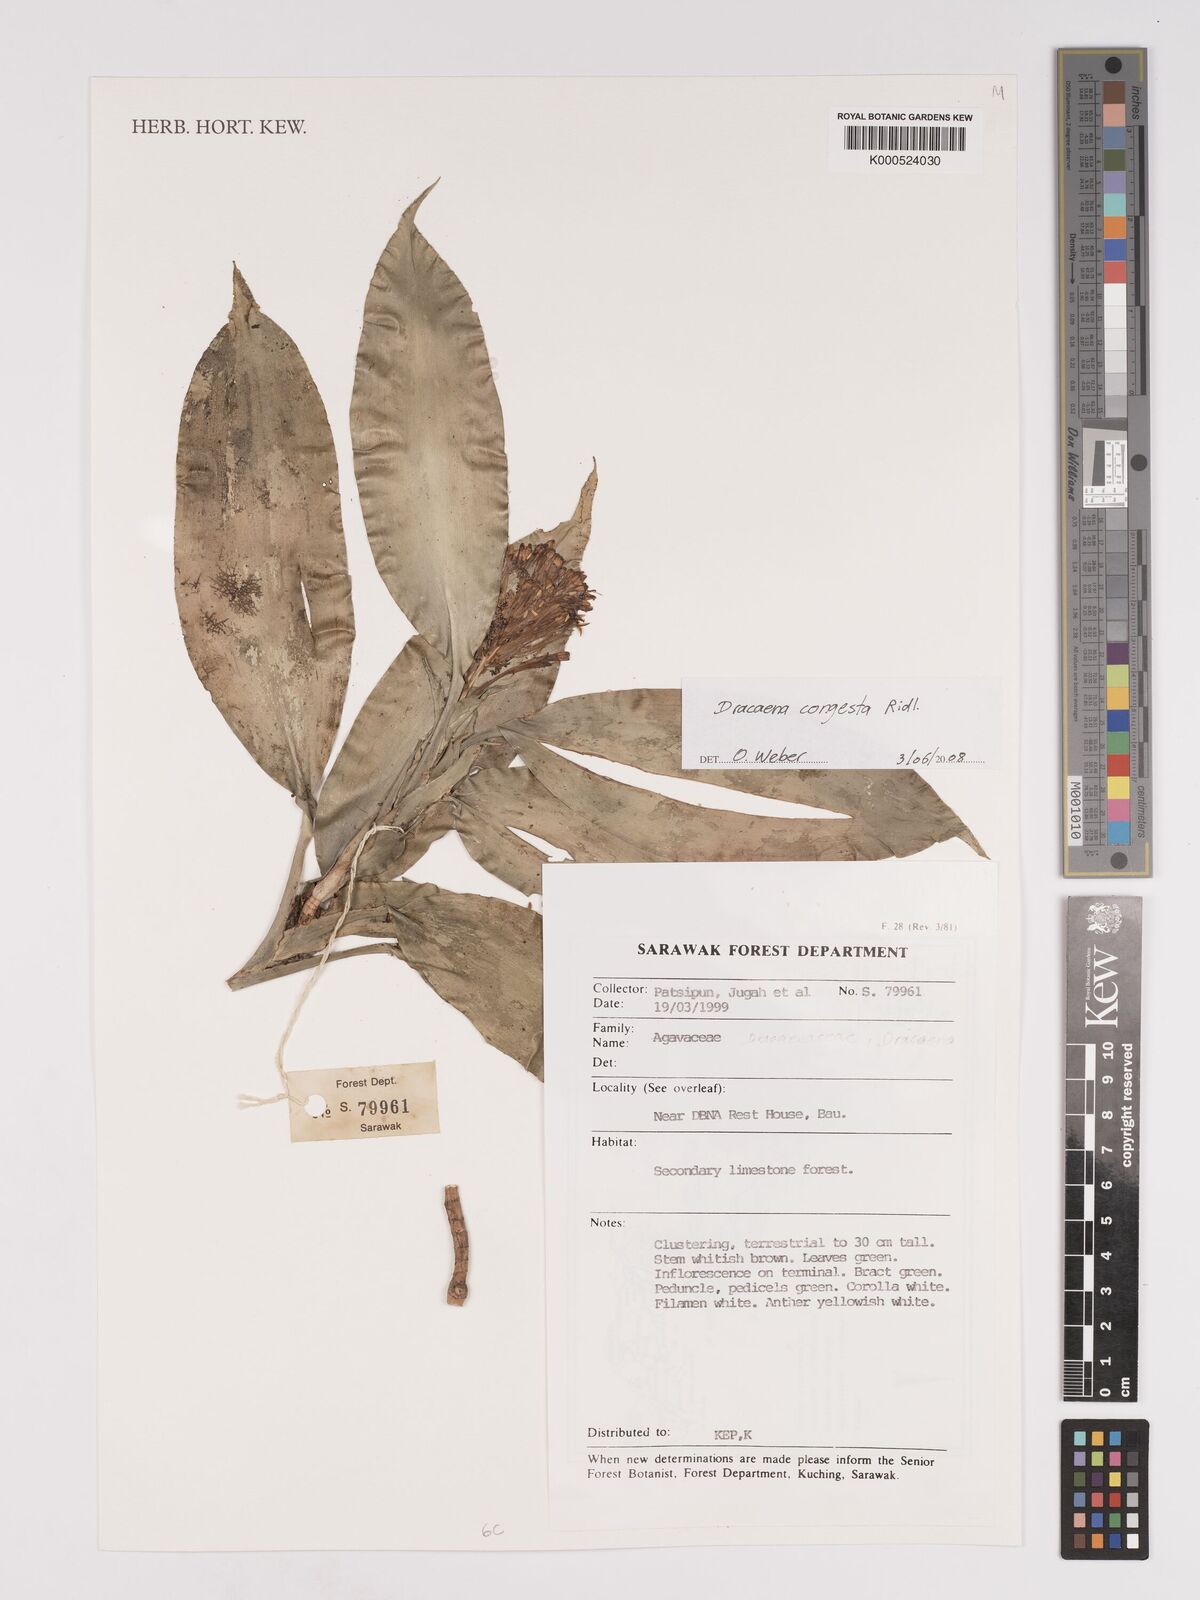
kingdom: Plantae
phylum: Tracheophyta
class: Liliopsida
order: Asparagales
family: Asparagaceae
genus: Dracaena
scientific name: Dracaena chiniana
